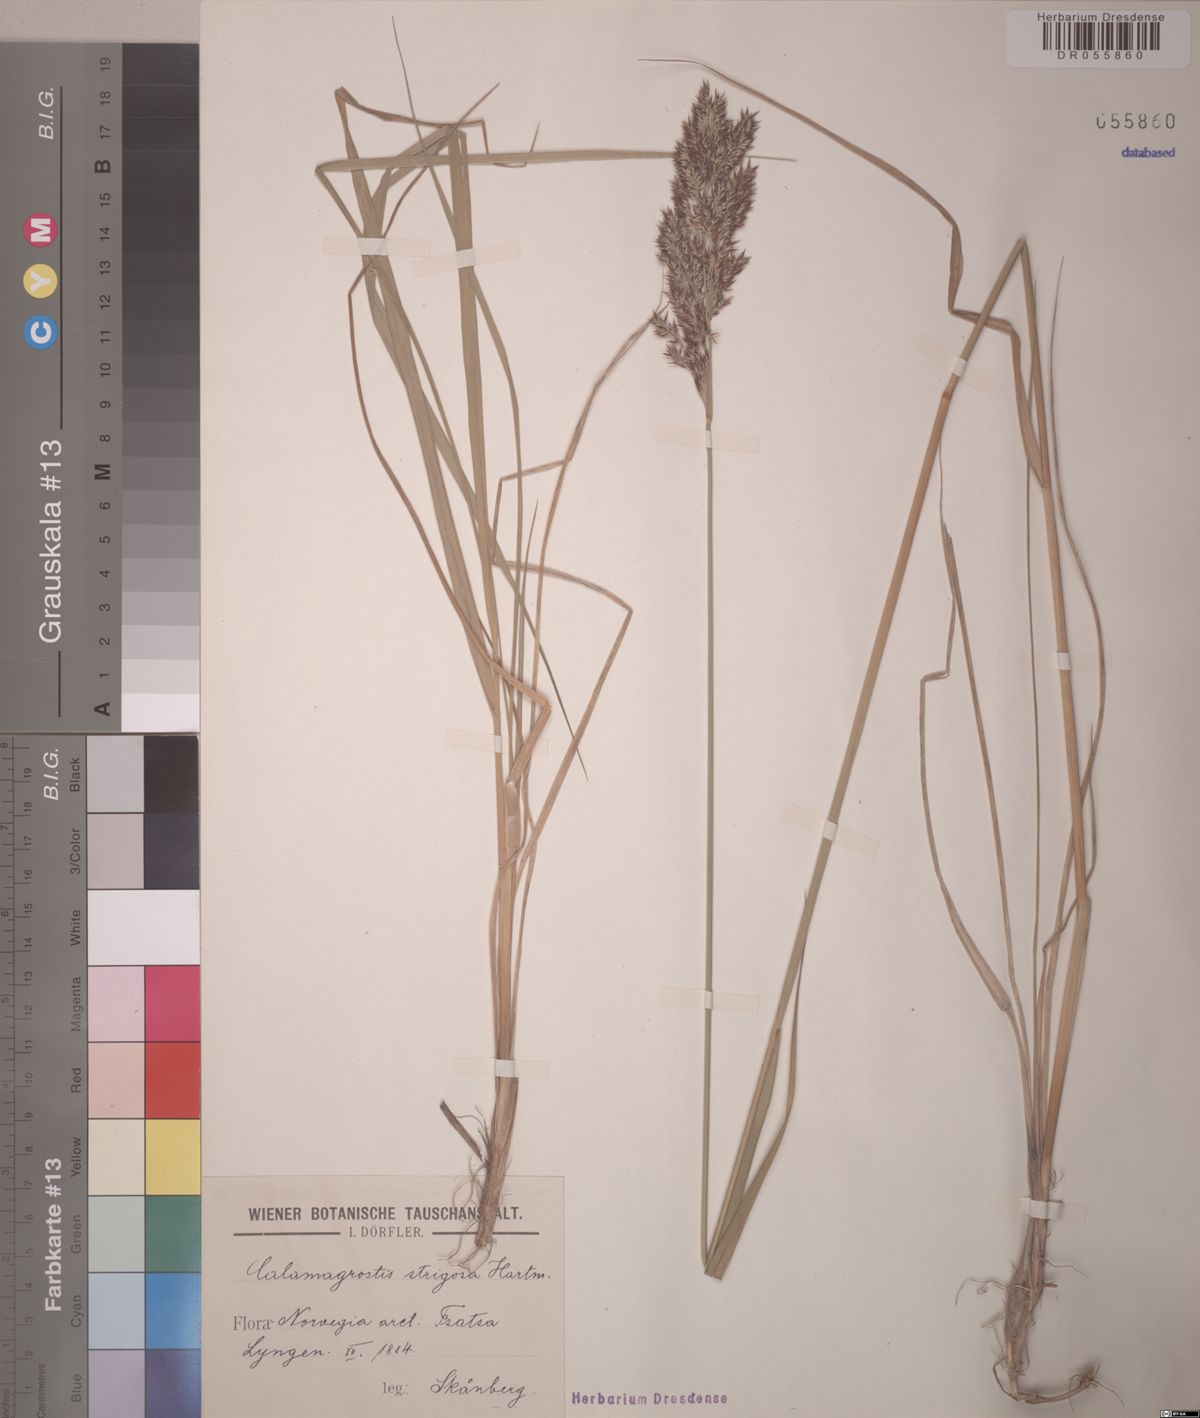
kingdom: Plantae
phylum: Tracheophyta
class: Liliopsida
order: Poales
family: Poaceae
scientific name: Poaceae
